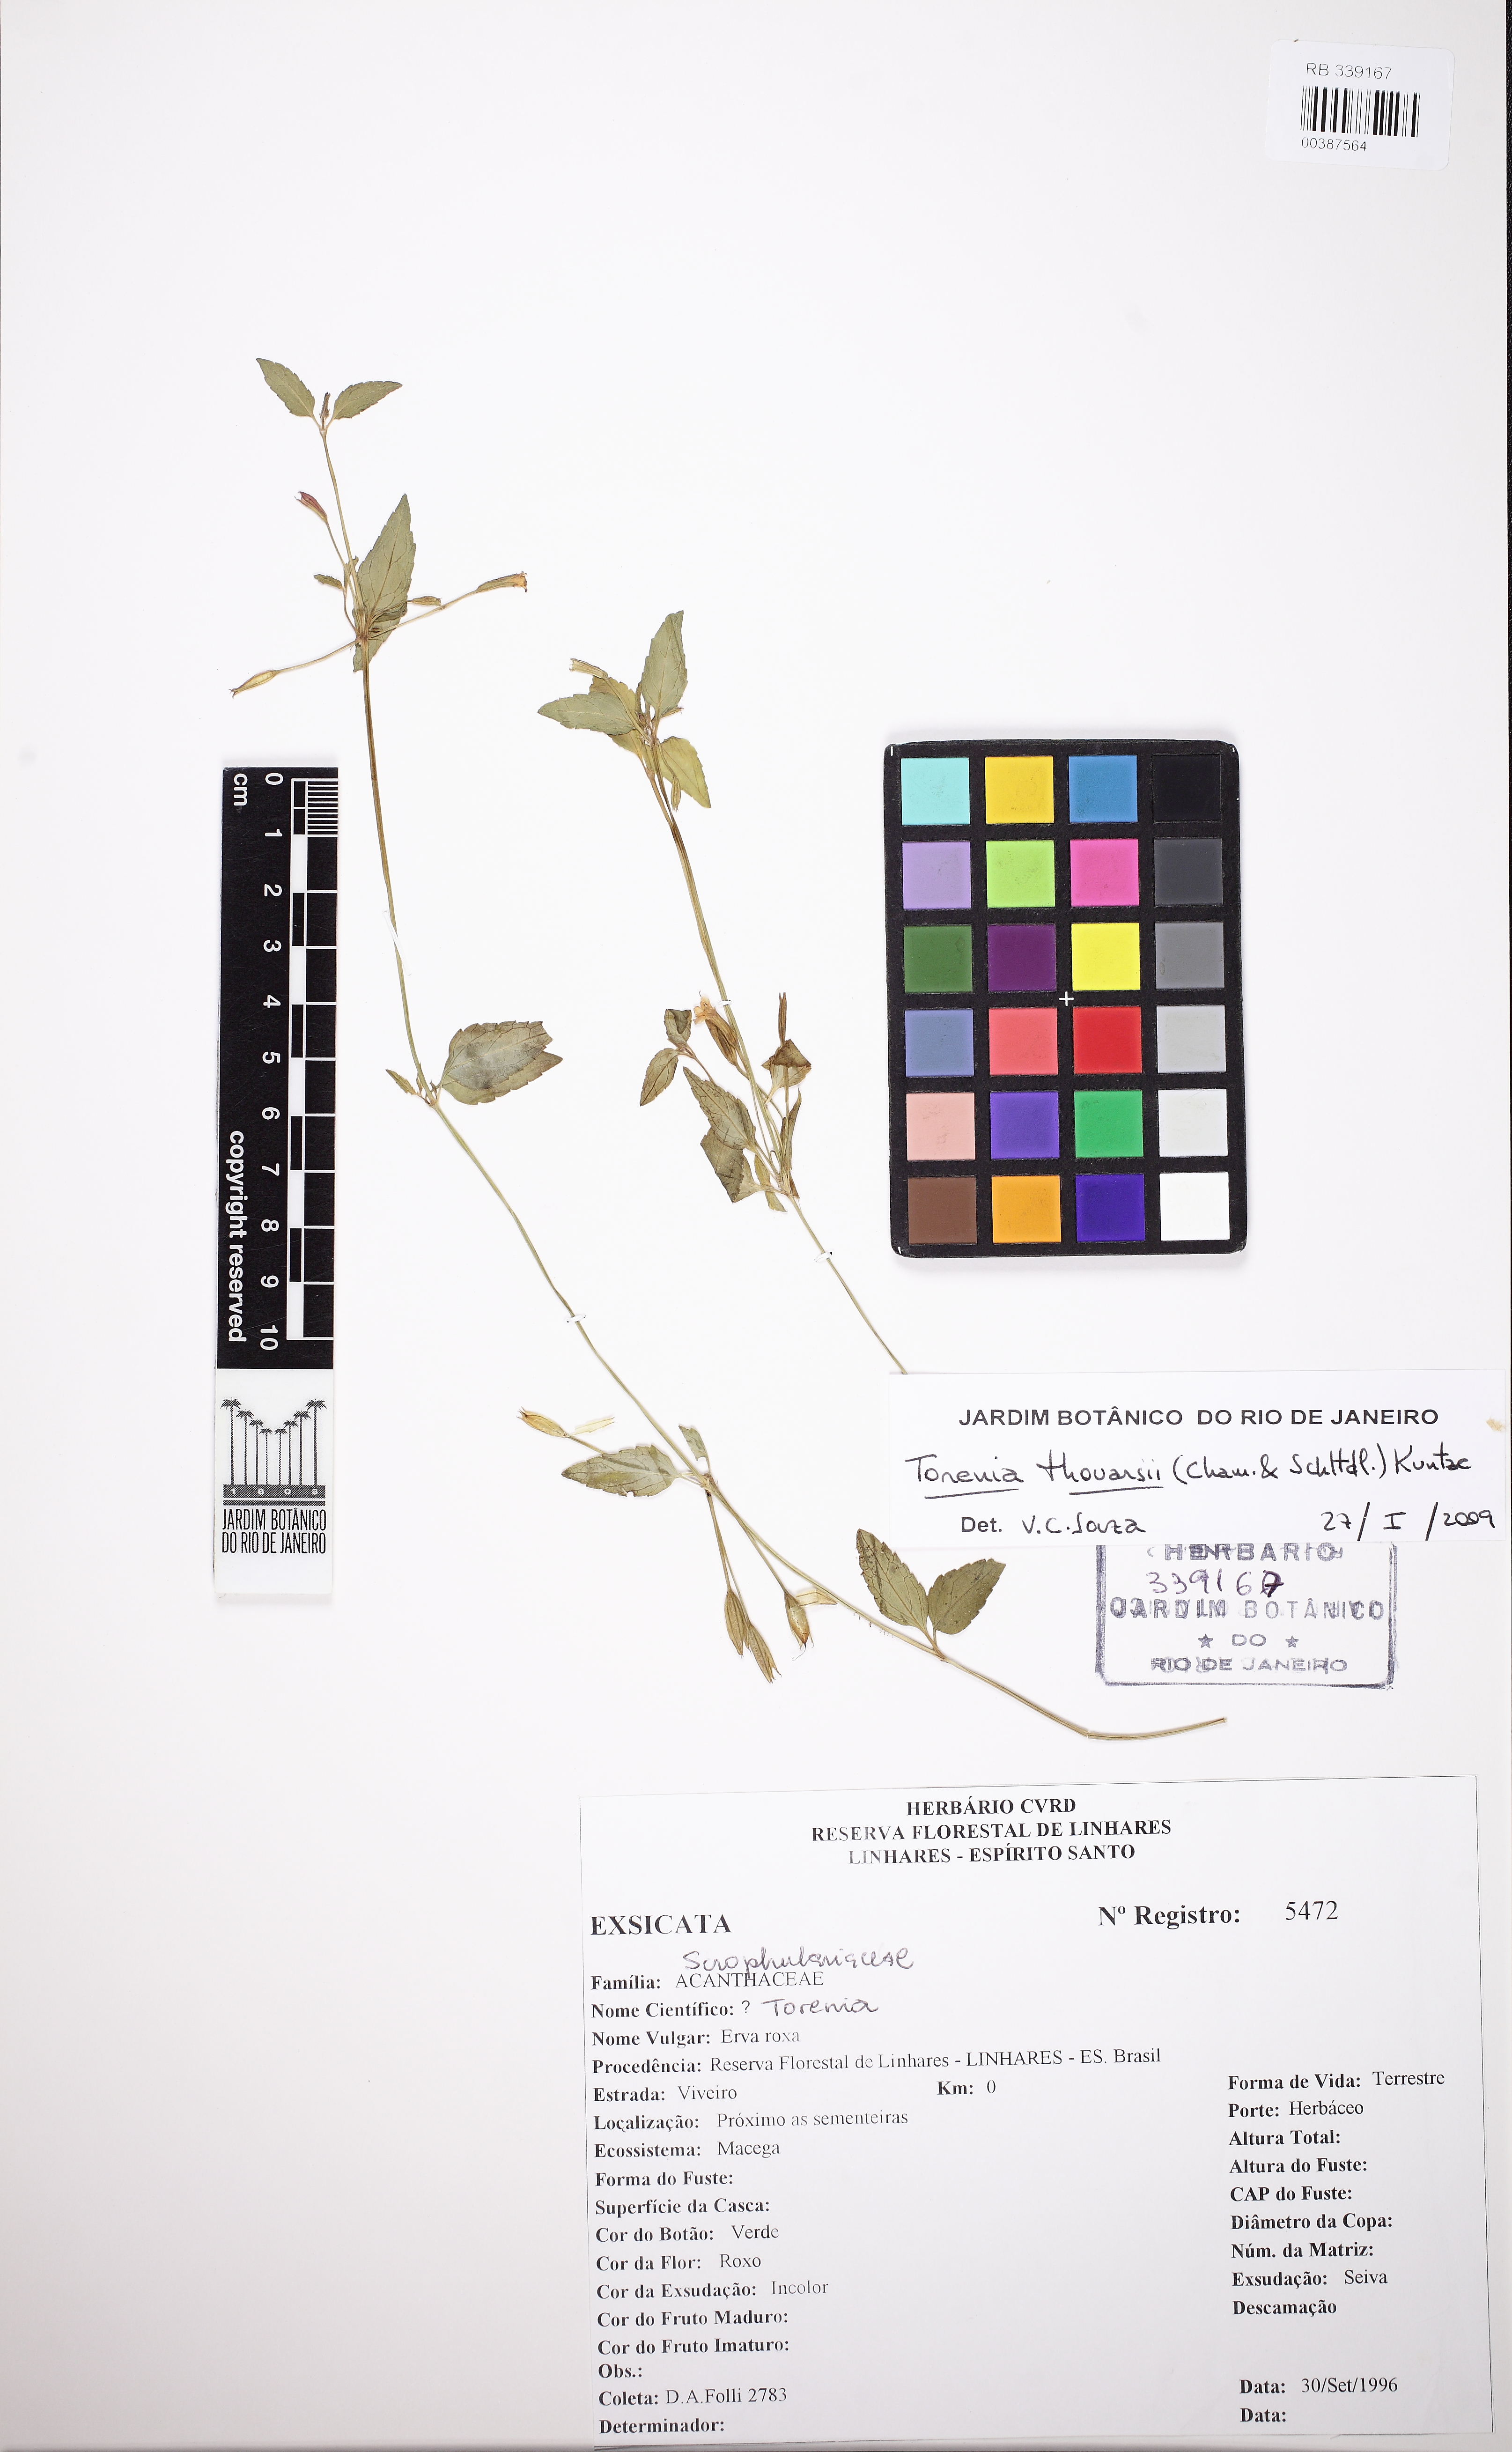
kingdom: Plantae
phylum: Tracheophyta
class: Magnoliopsida
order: Lamiales
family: Linderniaceae
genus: Torenia
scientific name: Torenia thouarsii
